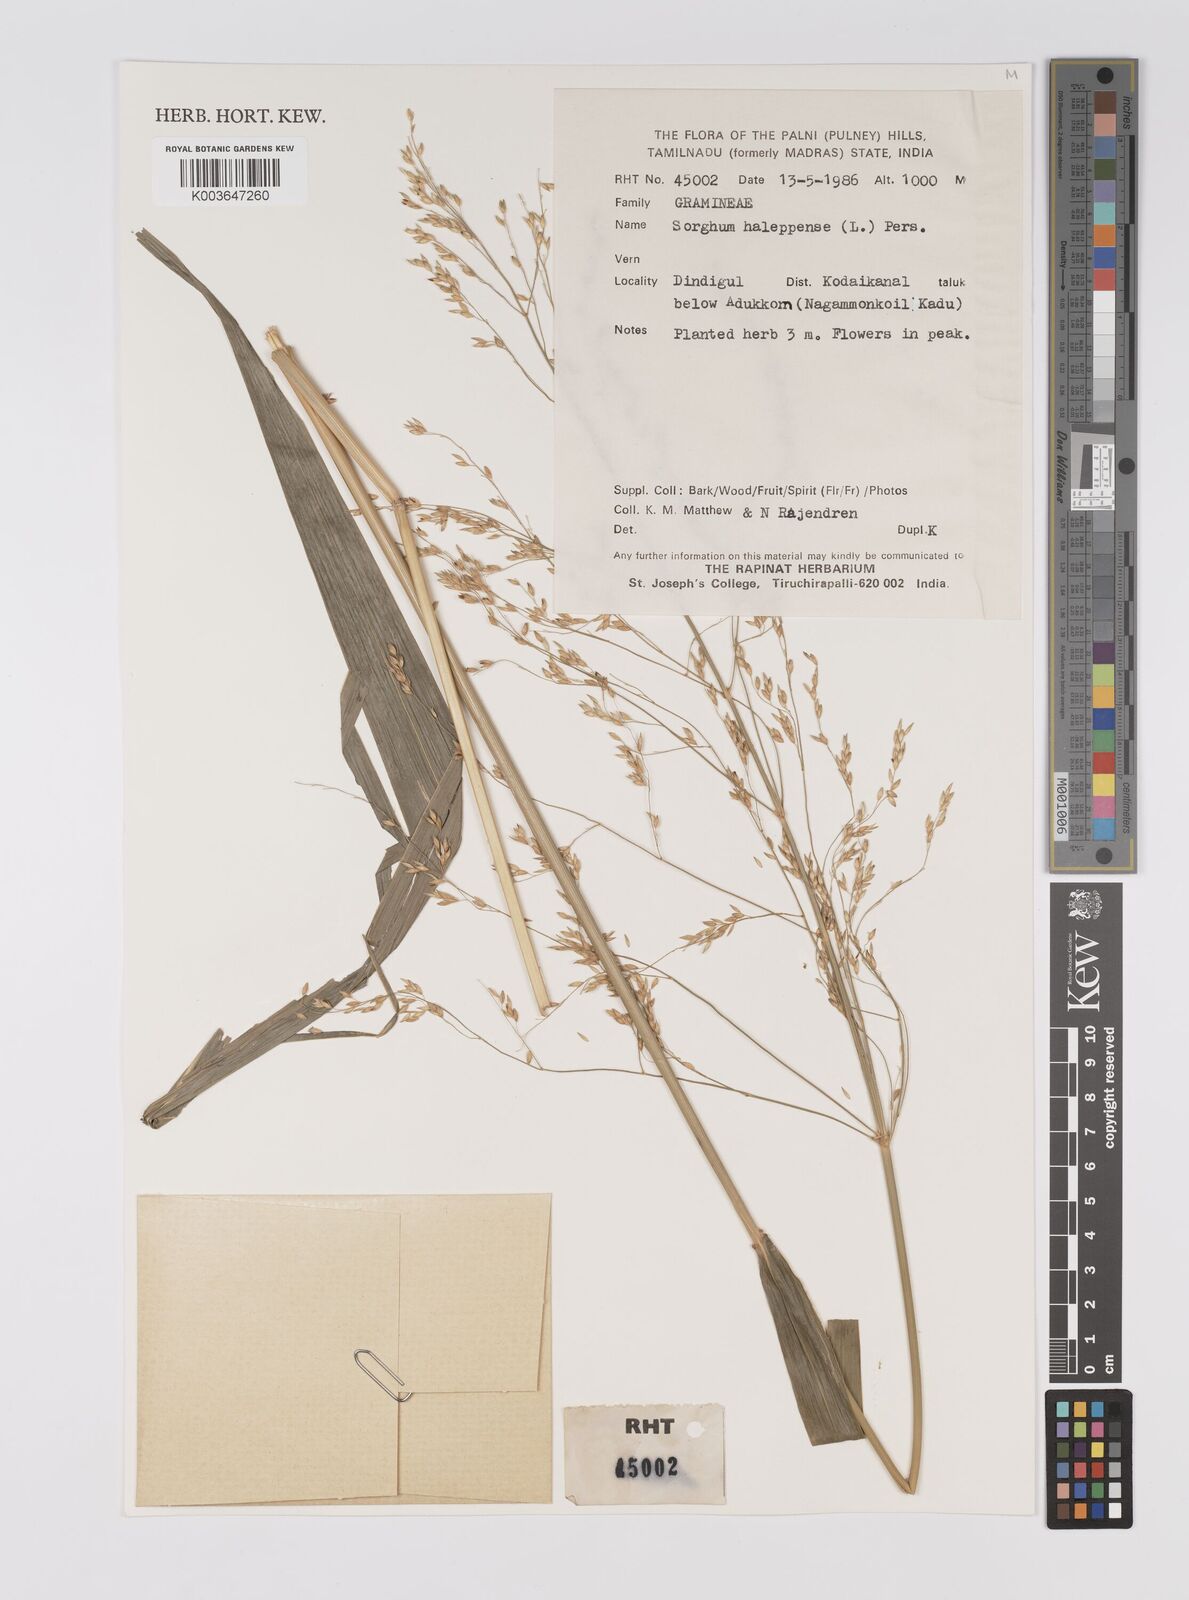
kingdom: Plantae
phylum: Tracheophyta
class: Liliopsida
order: Poales
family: Poaceae
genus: Sorghum
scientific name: Sorghum halepense
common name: Johnson-grass
